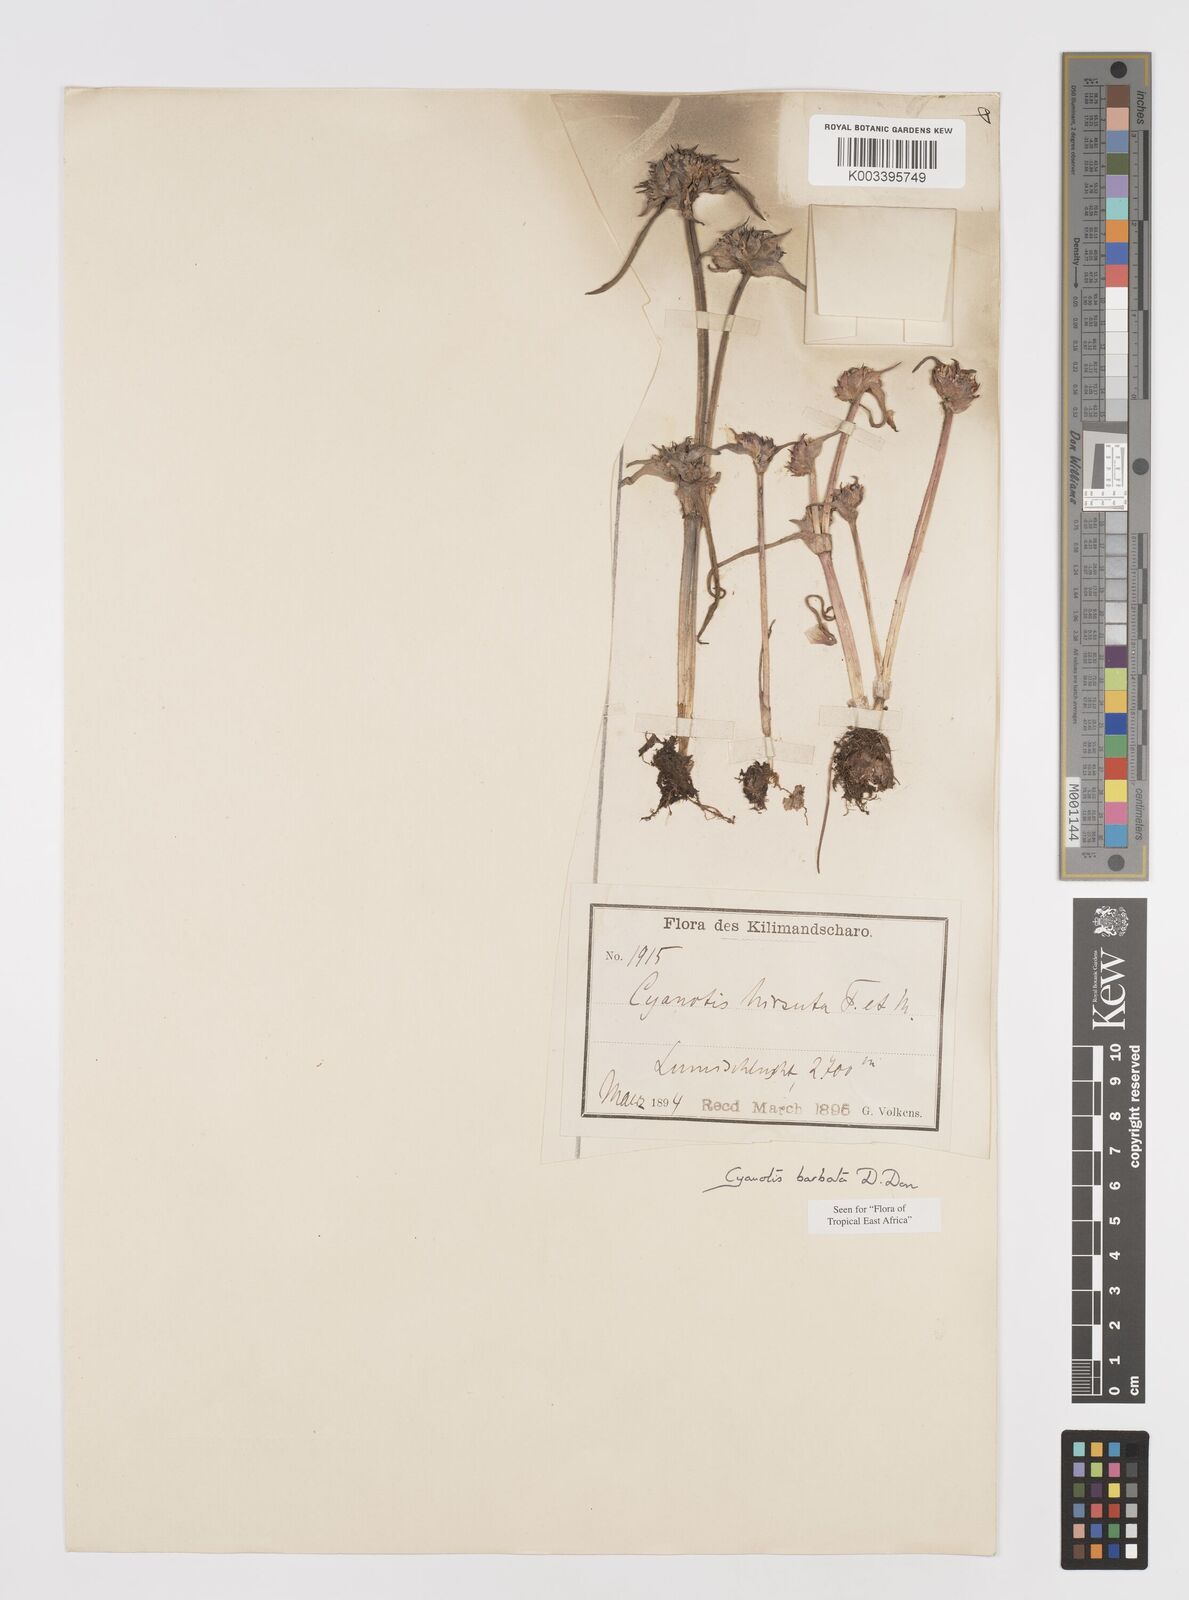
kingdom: Plantae
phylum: Tracheophyta
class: Liliopsida
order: Commelinales
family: Commelinaceae
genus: Cyanotis
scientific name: Cyanotis vaga
